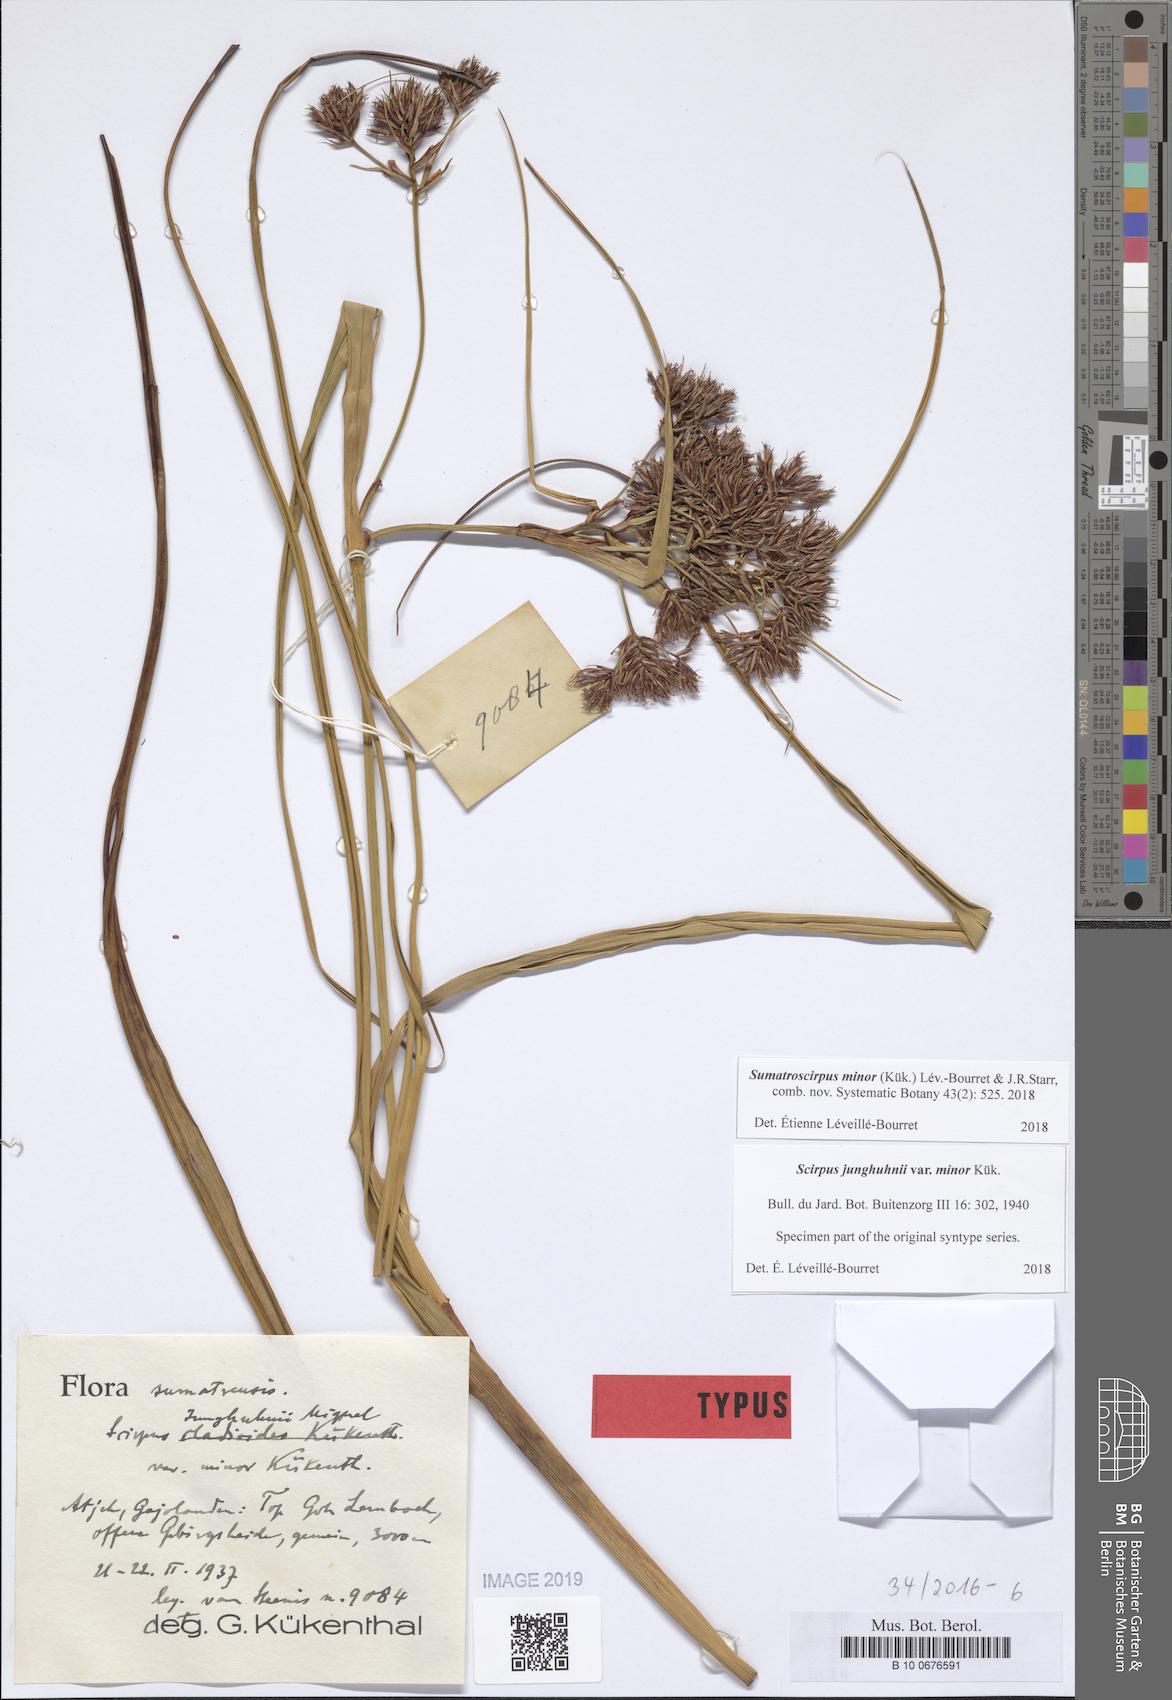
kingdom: Plantae
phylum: Tracheophyta
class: Liliopsida
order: Poales
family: Cyperaceae
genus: Sumatroscirpus
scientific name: Sumatroscirpus minor
